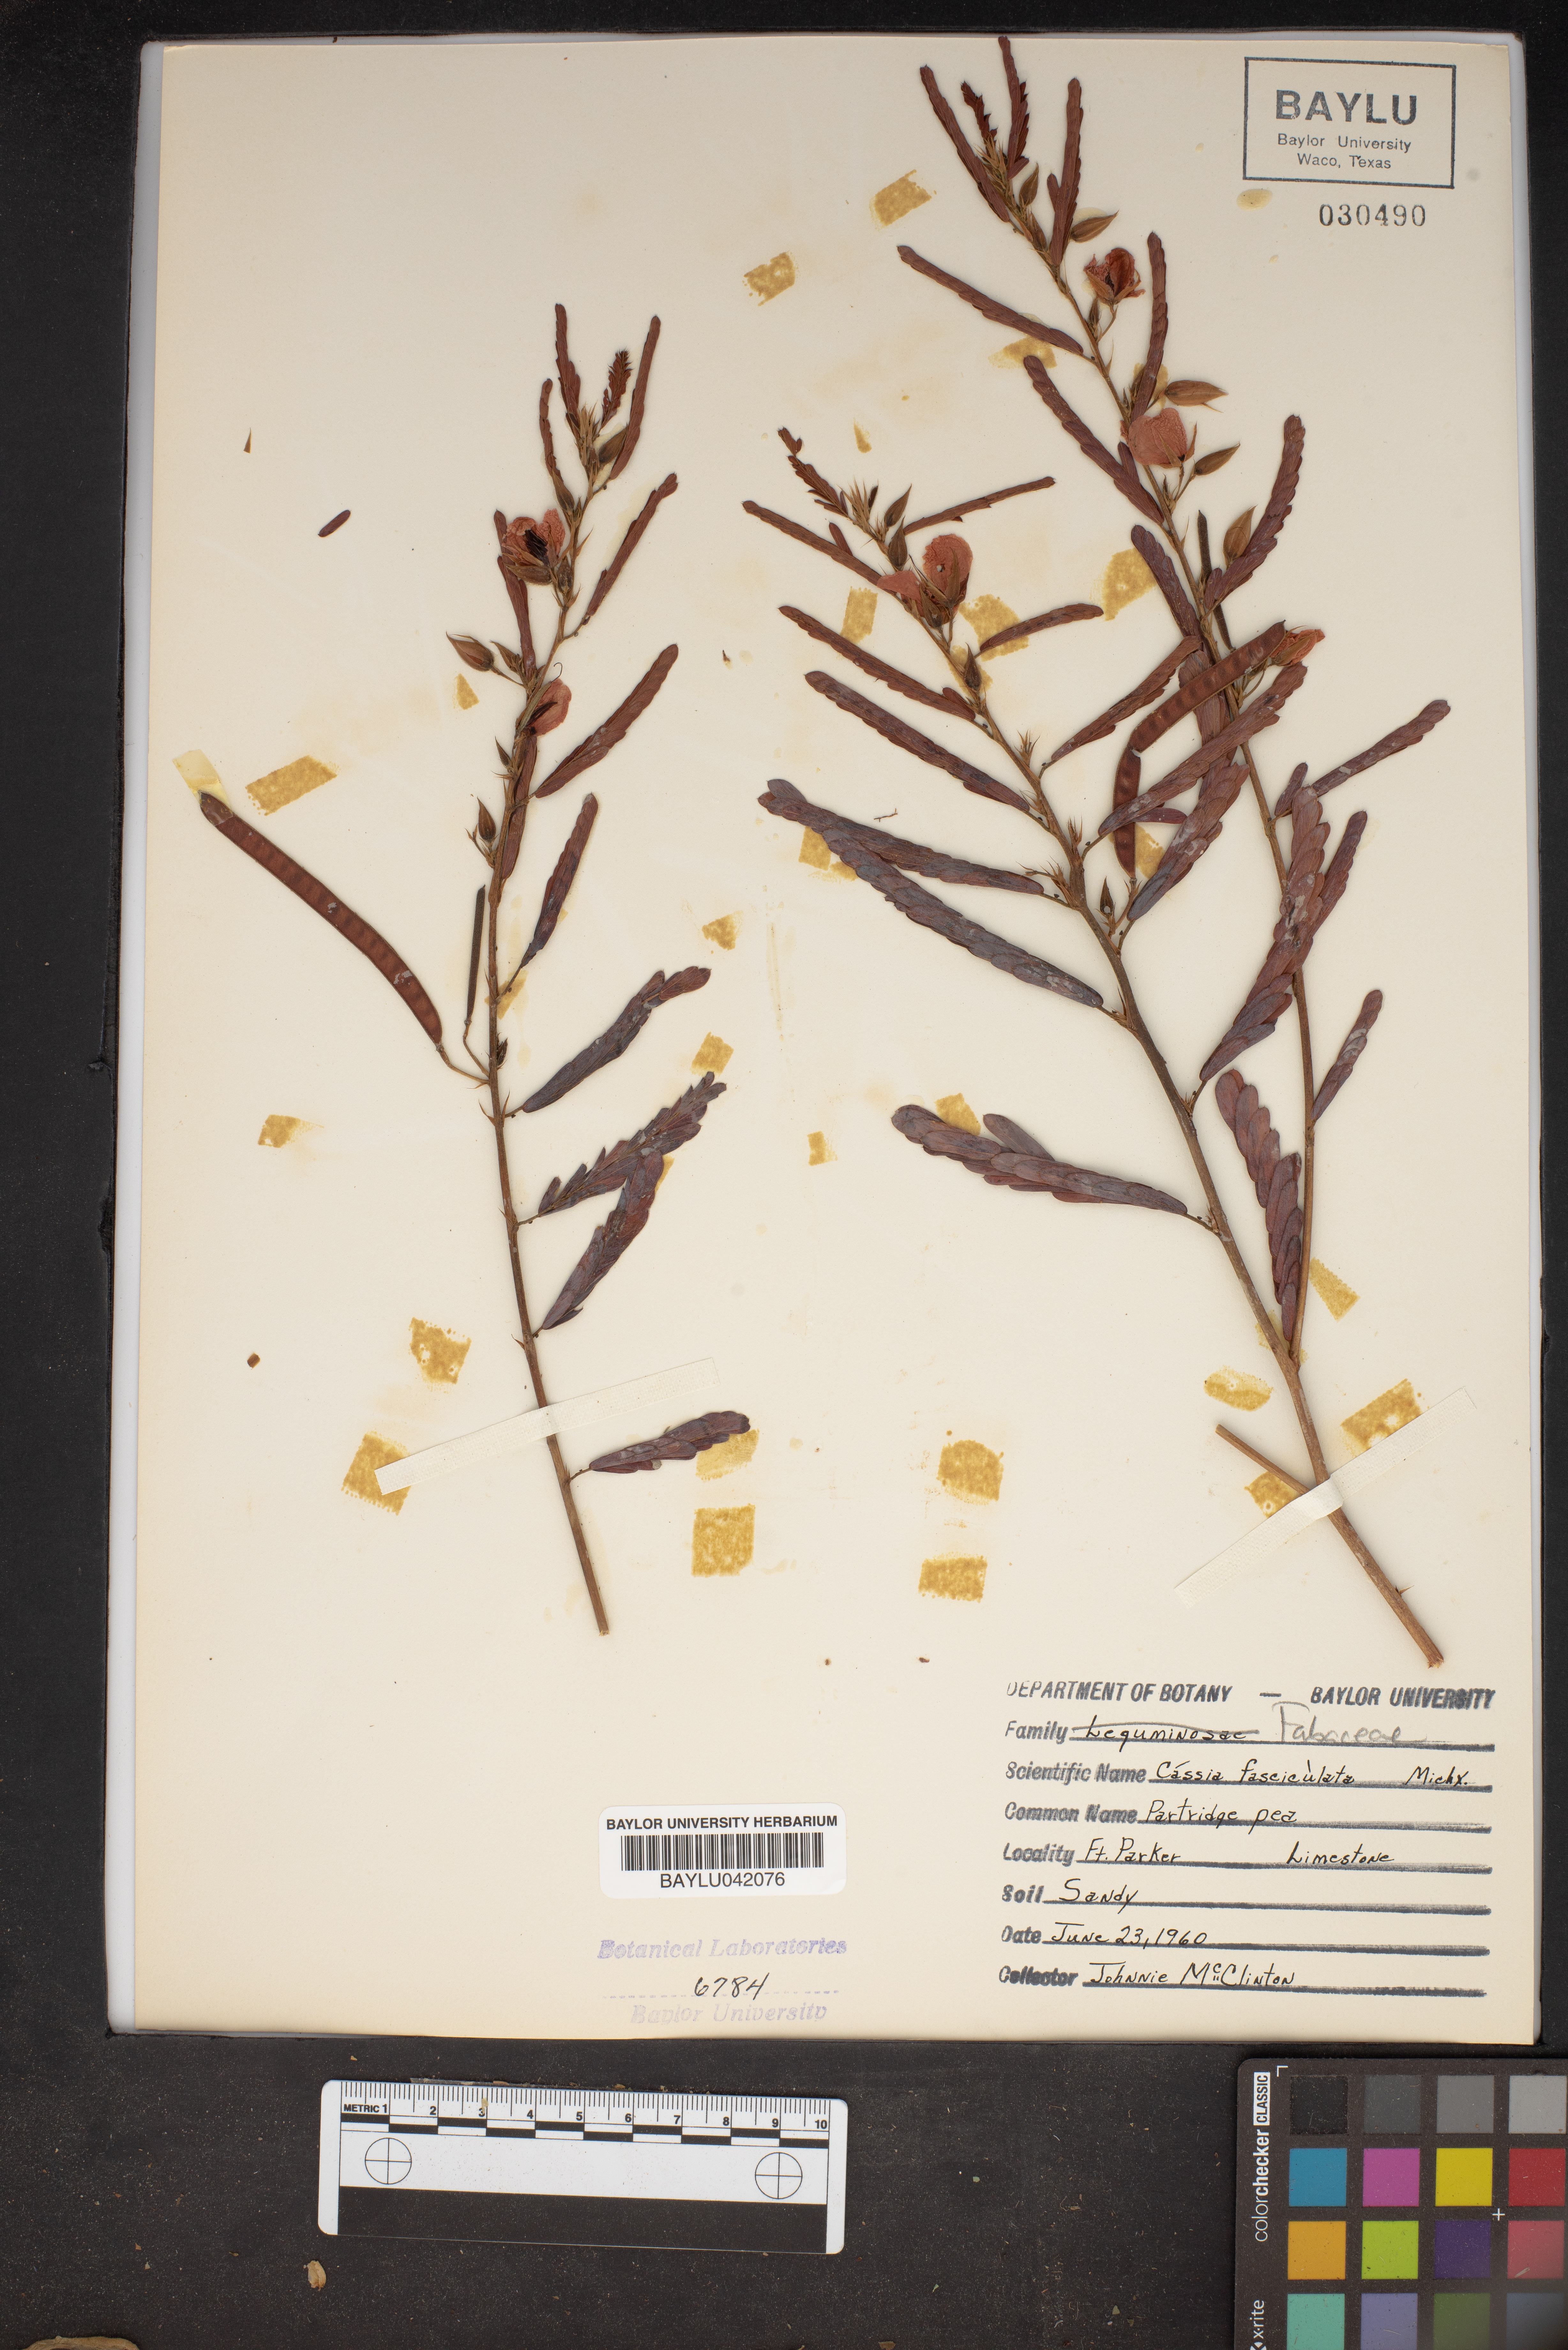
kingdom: Plantae
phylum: Tracheophyta
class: Magnoliopsida
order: Fabales
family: Fabaceae
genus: Chamaecrista
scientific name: Chamaecrista fasciculata
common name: Golden cassia
